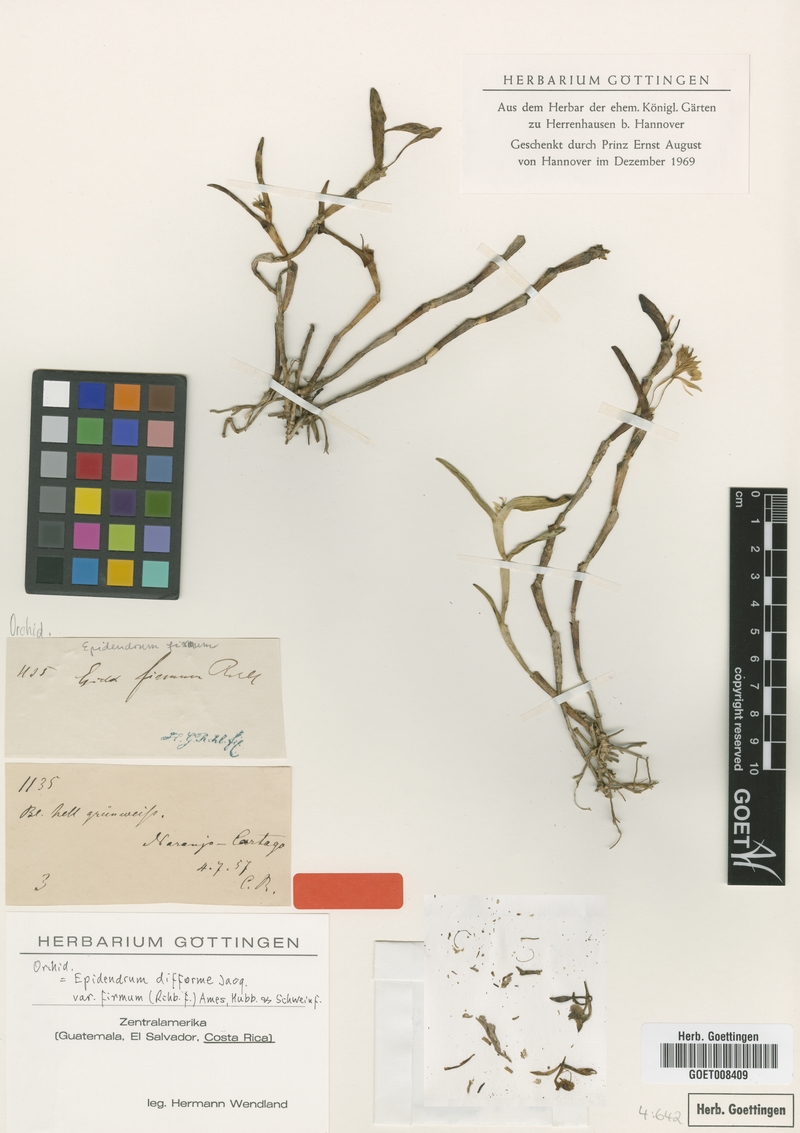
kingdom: Plantae
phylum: Tracheophyta
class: Liliopsida
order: Asparagales
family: Orchidaceae
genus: Epidendrum
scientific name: Epidendrum difforme
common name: Umbrella epidendrum
